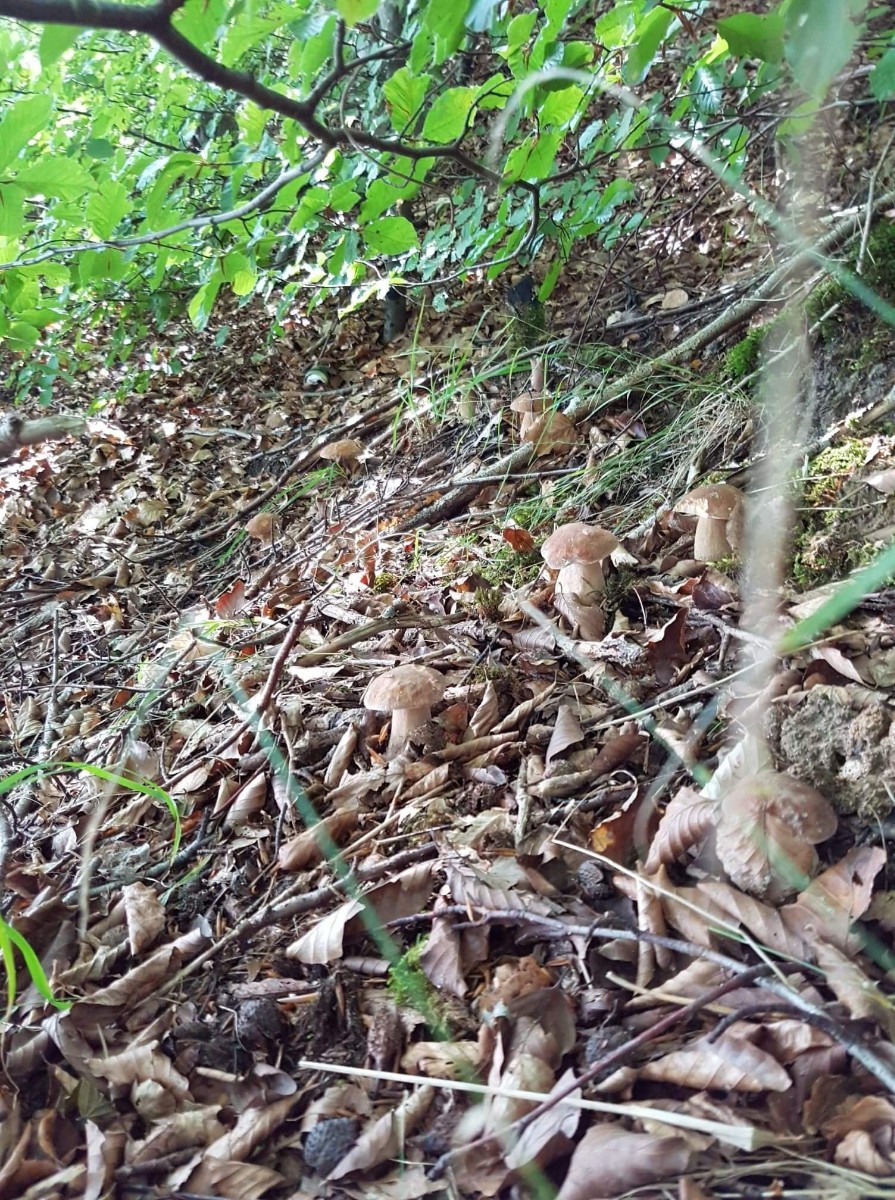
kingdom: Fungi
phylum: Basidiomycota
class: Agaricomycetes
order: Boletales
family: Boletaceae
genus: Boletus
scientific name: Boletus edulis
